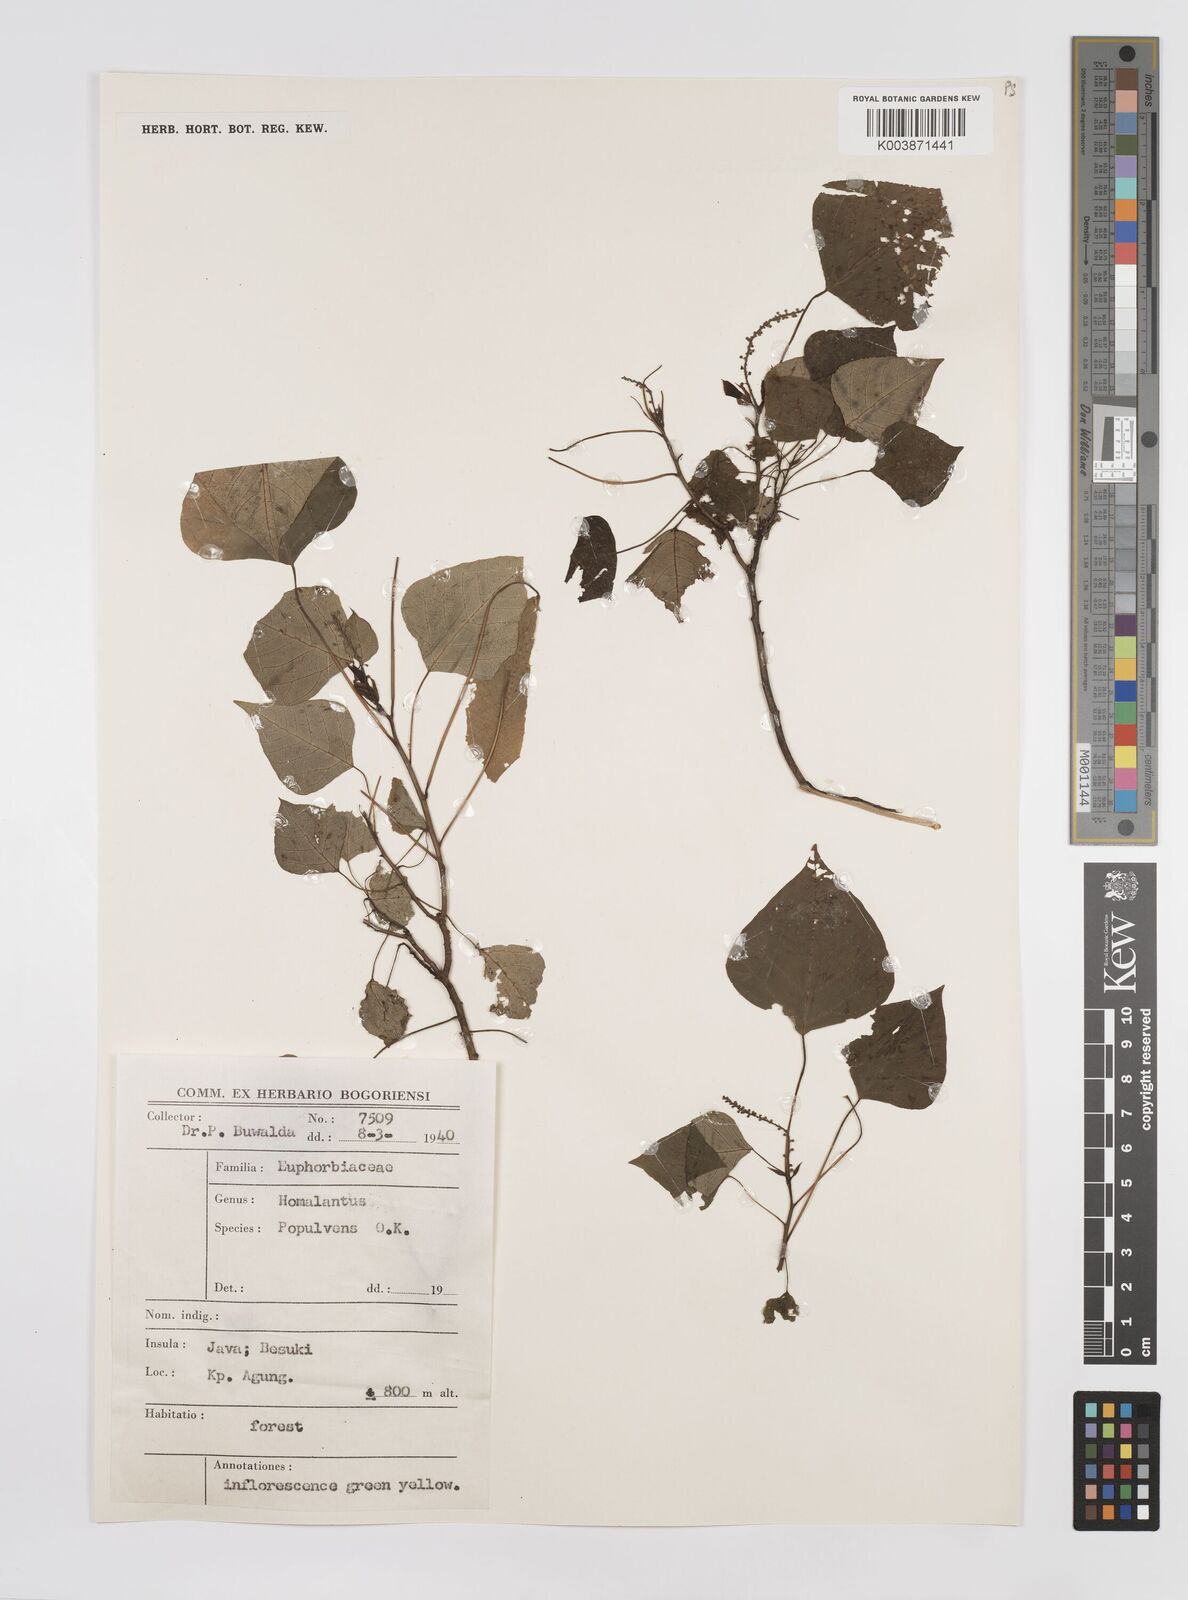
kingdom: Plantae
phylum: Tracheophyta
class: Magnoliopsida
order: Malpighiales
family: Euphorbiaceae
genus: Homalanthus
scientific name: Homalanthus populneus
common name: Spurge
